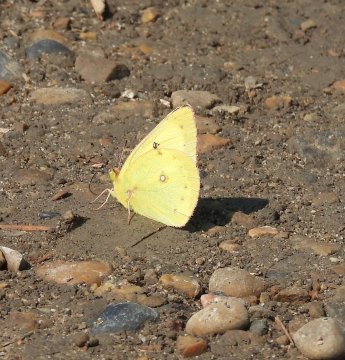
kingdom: Animalia
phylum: Arthropoda
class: Insecta
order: Lepidoptera
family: Pieridae
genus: Colias
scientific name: Colias philodice
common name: Clouded Sulphur
